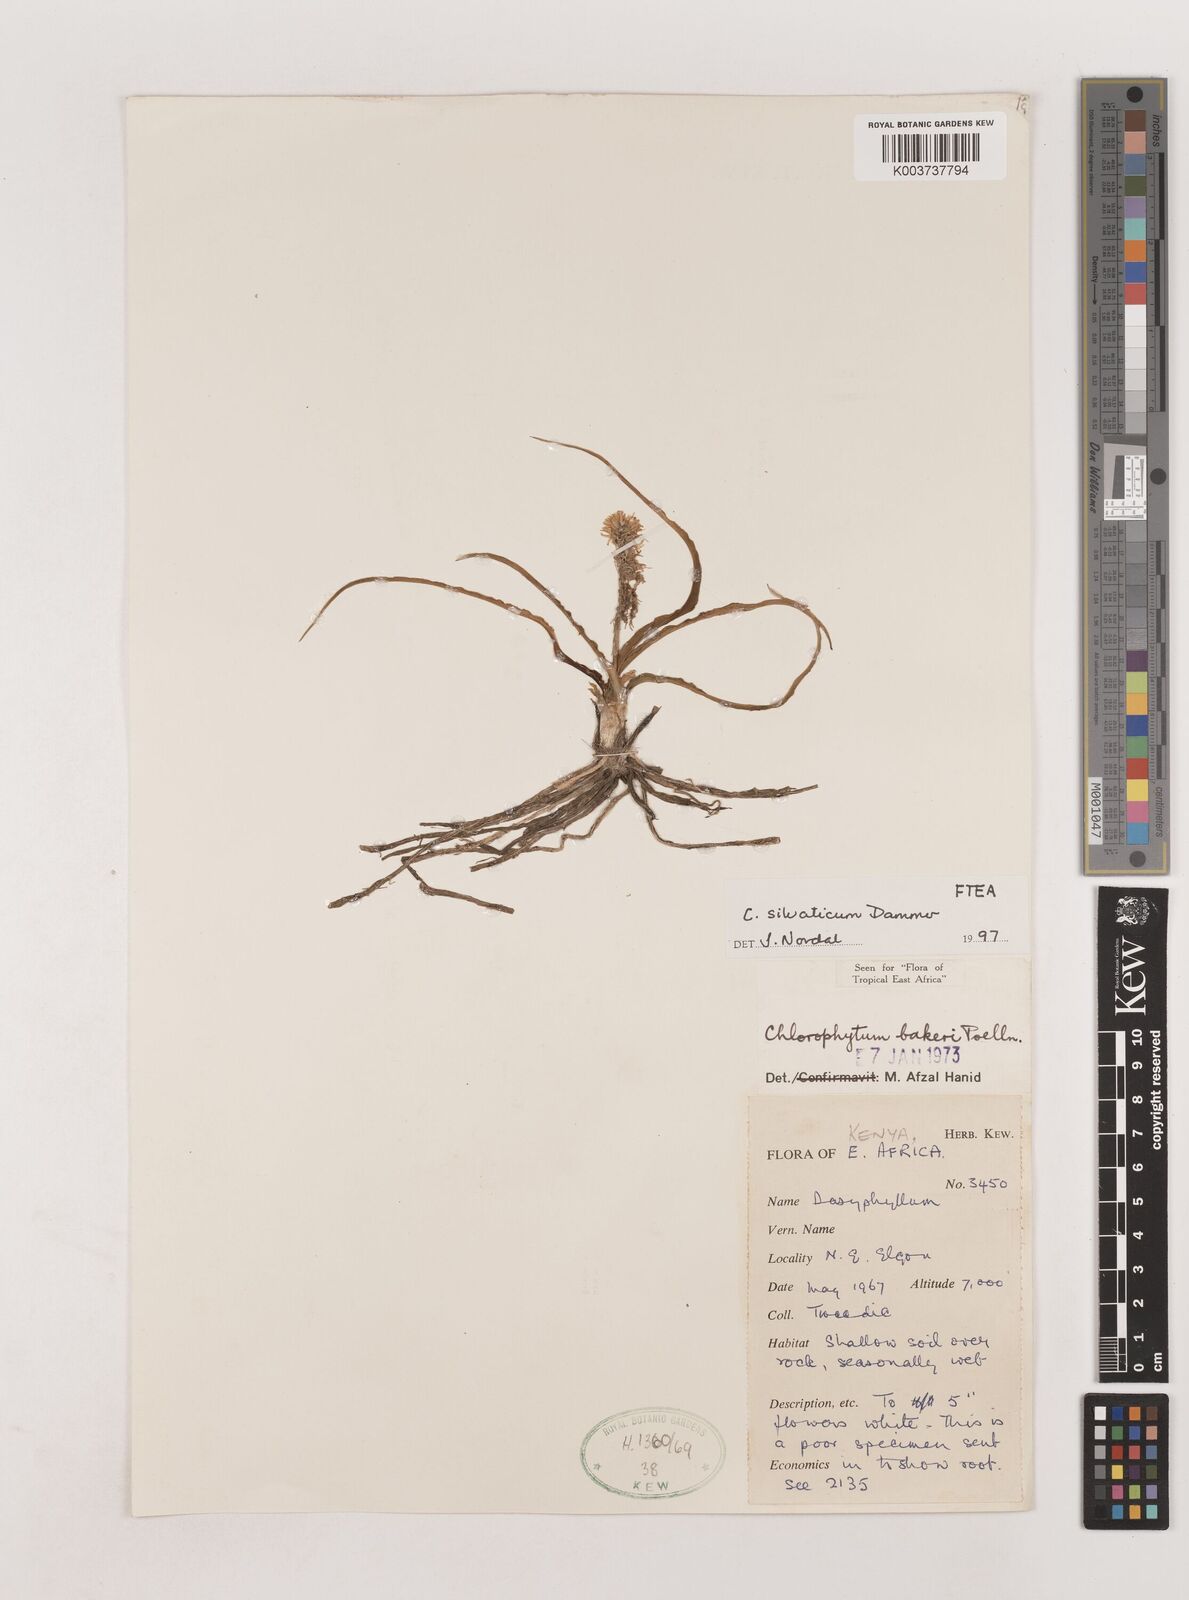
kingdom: Plantae
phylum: Tracheophyta
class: Liliopsida
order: Asparagales
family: Asparagaceae
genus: Chlorophytum
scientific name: Chlorophytum africanum
